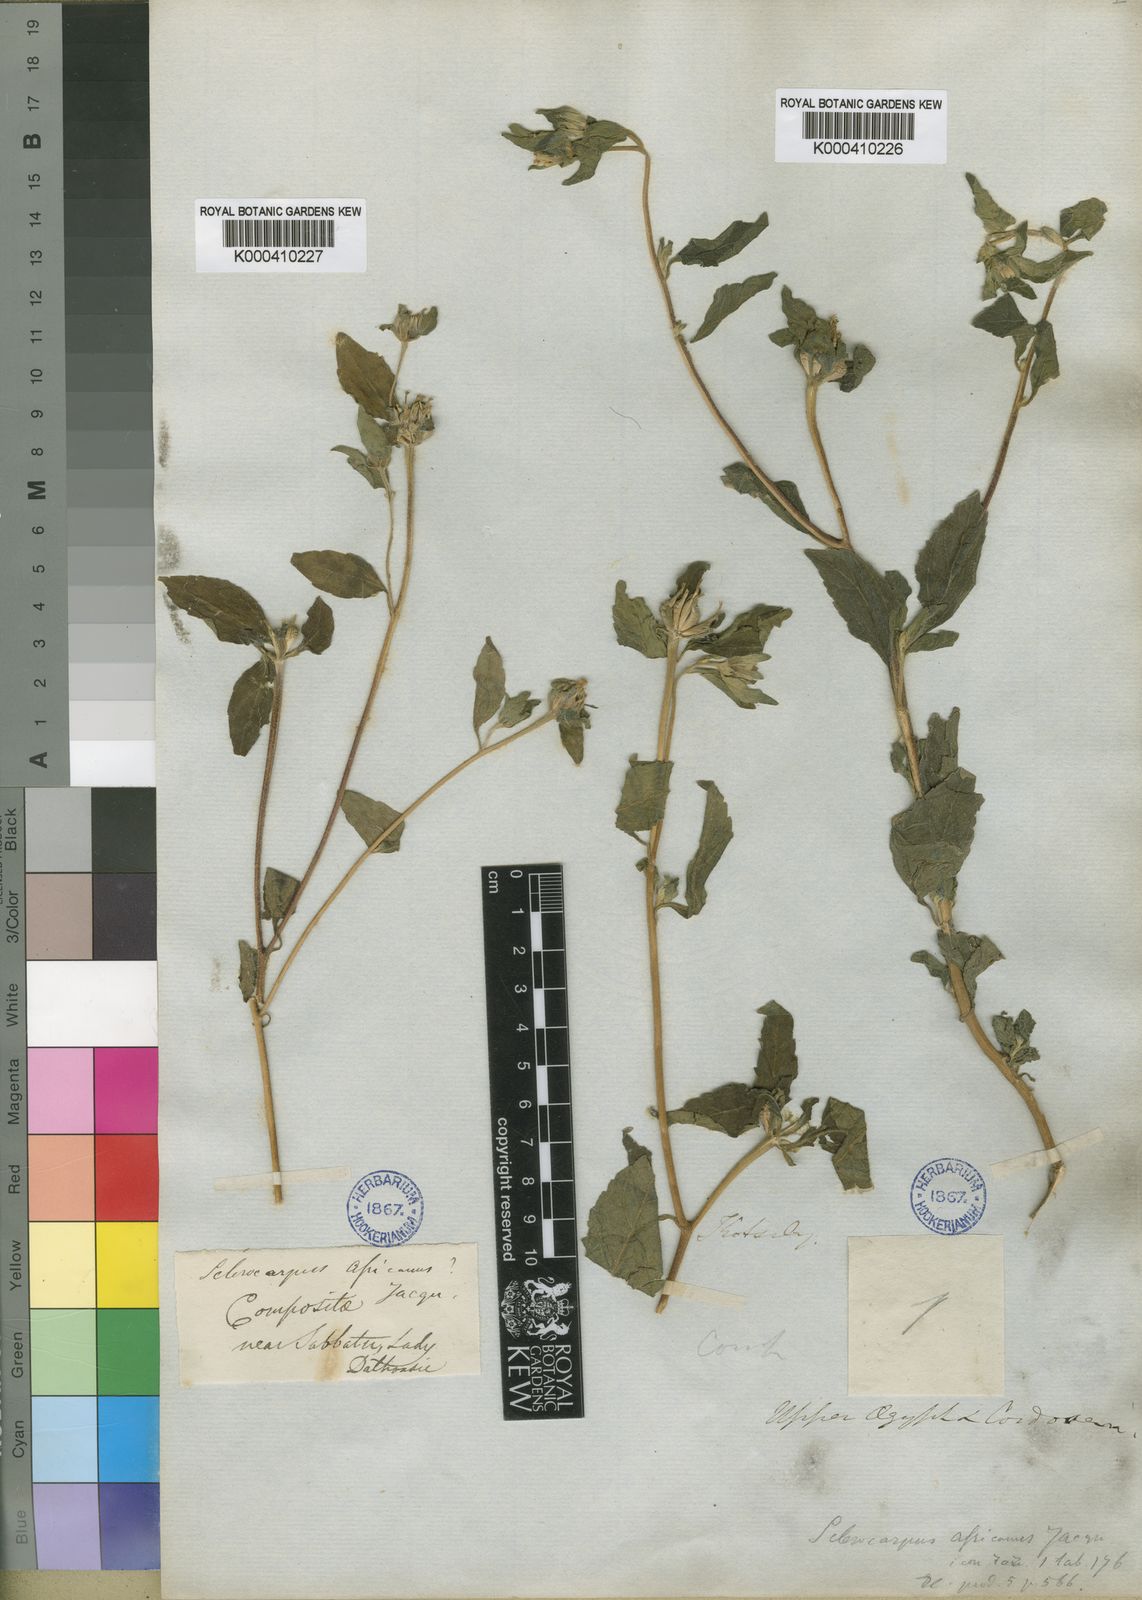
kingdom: Plantae
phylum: Tracheophyta
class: Magnoliopsida
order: Asterales
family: Asteraceae
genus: Sclerocarpus
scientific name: Sclerocarpus
